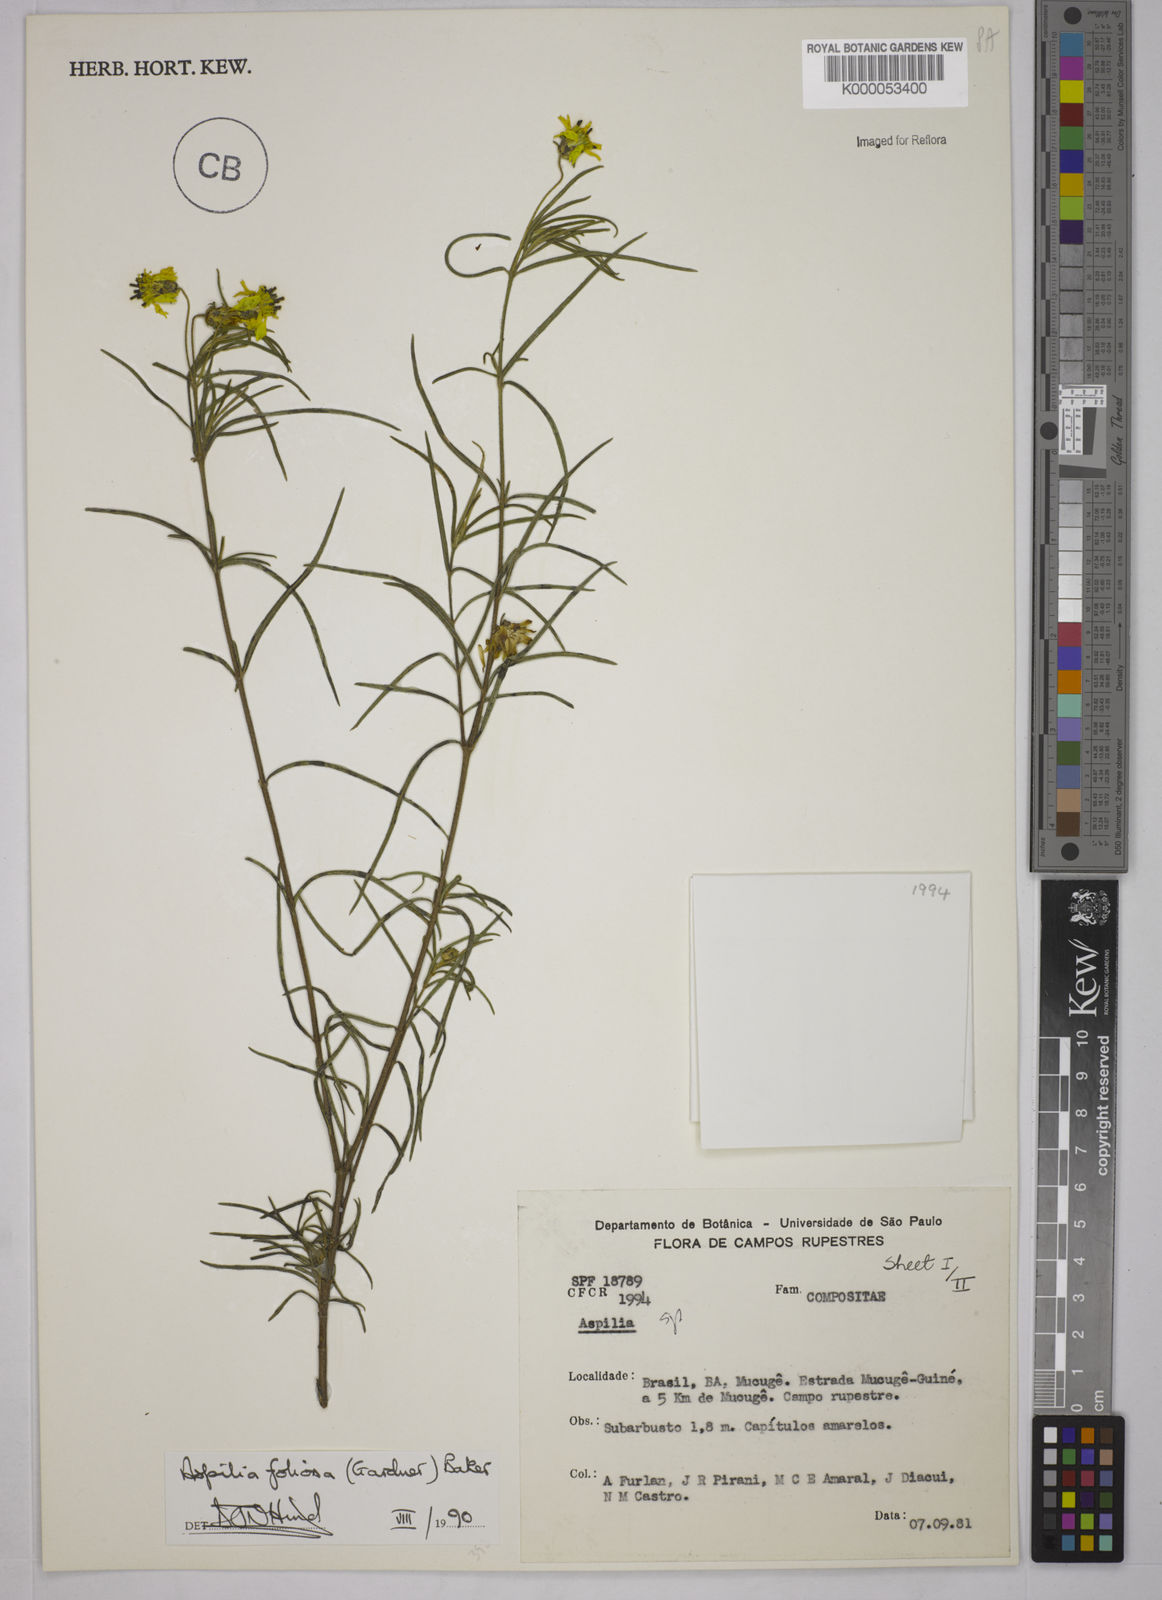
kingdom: Plantae
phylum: Tracheophyta
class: Magnoliopsida
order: Asterales
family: Asteraceae
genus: Aspilia
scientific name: Aspilia
